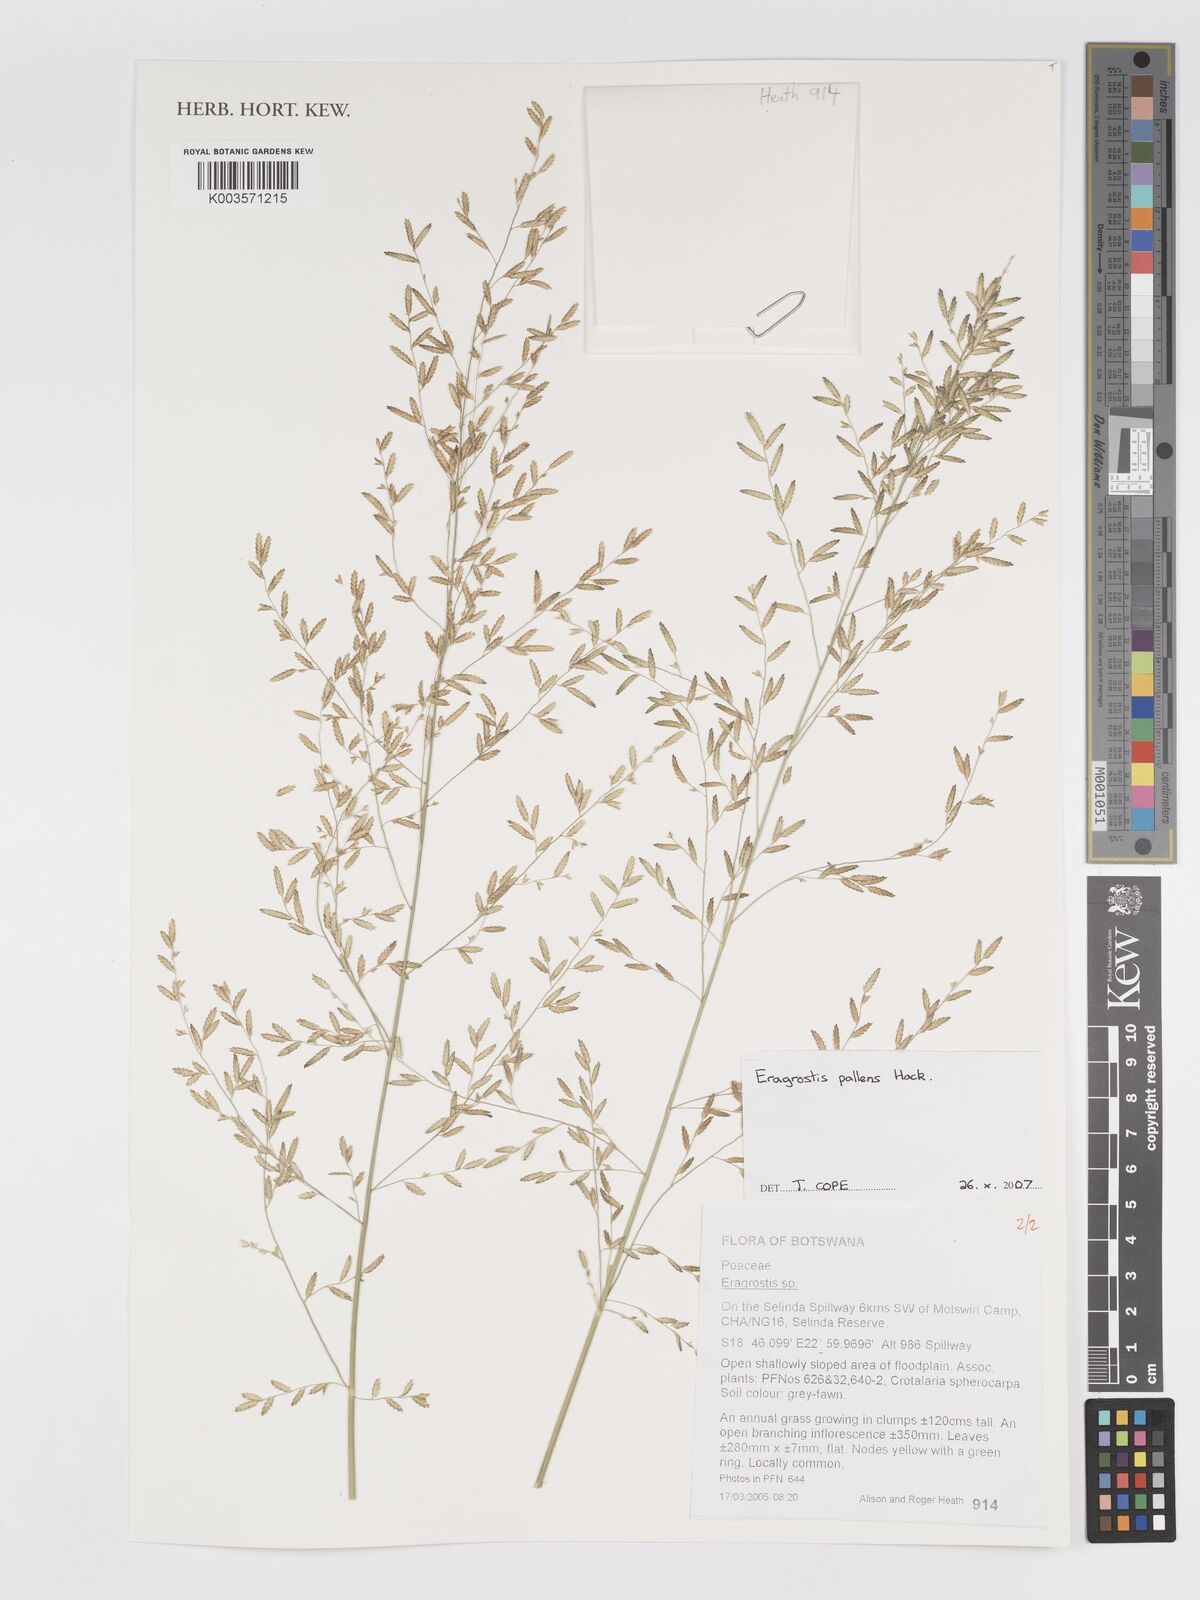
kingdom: Plantae
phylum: Tracheophyta
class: Liliopsida
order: Poales
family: Poaceae
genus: Eragrostis
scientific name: Eragrostis pallens
